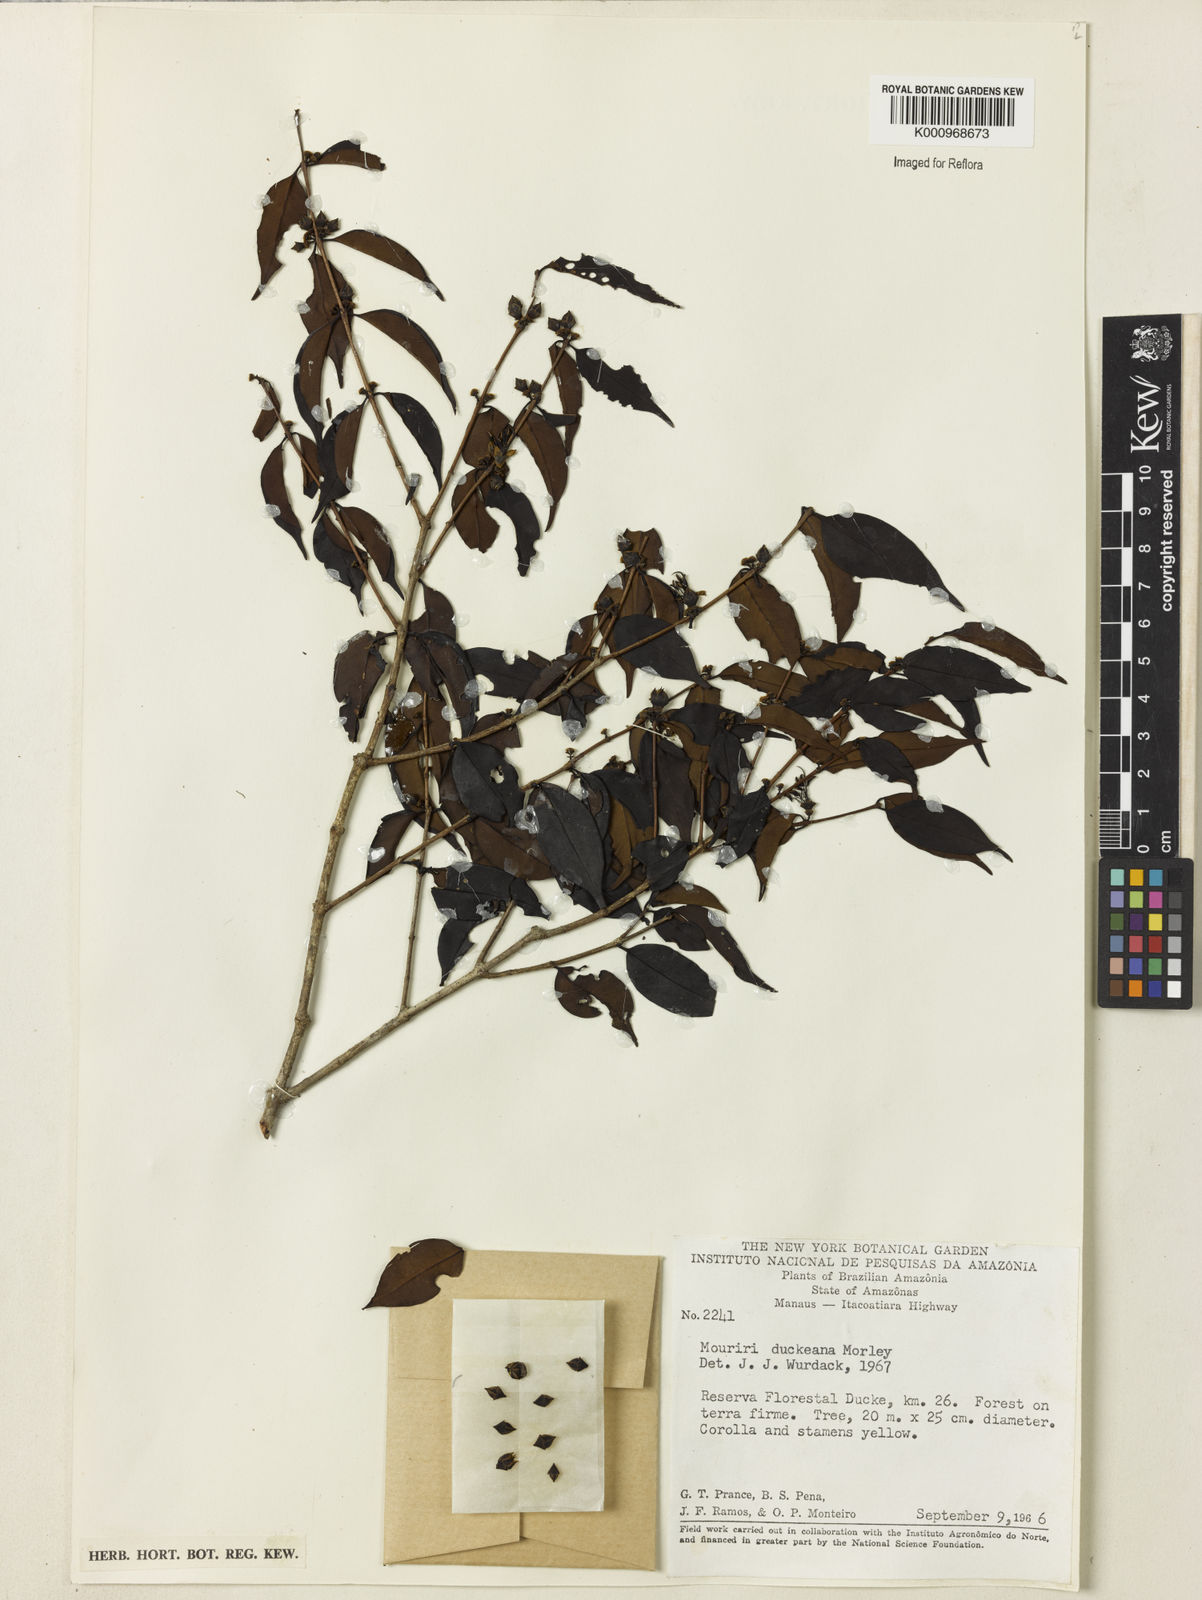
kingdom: Plantae
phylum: Tracheophyta
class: Magnoliopsida
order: Myrtales
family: Melastomataceae
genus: Mouriri
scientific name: Mouriri duckeana
